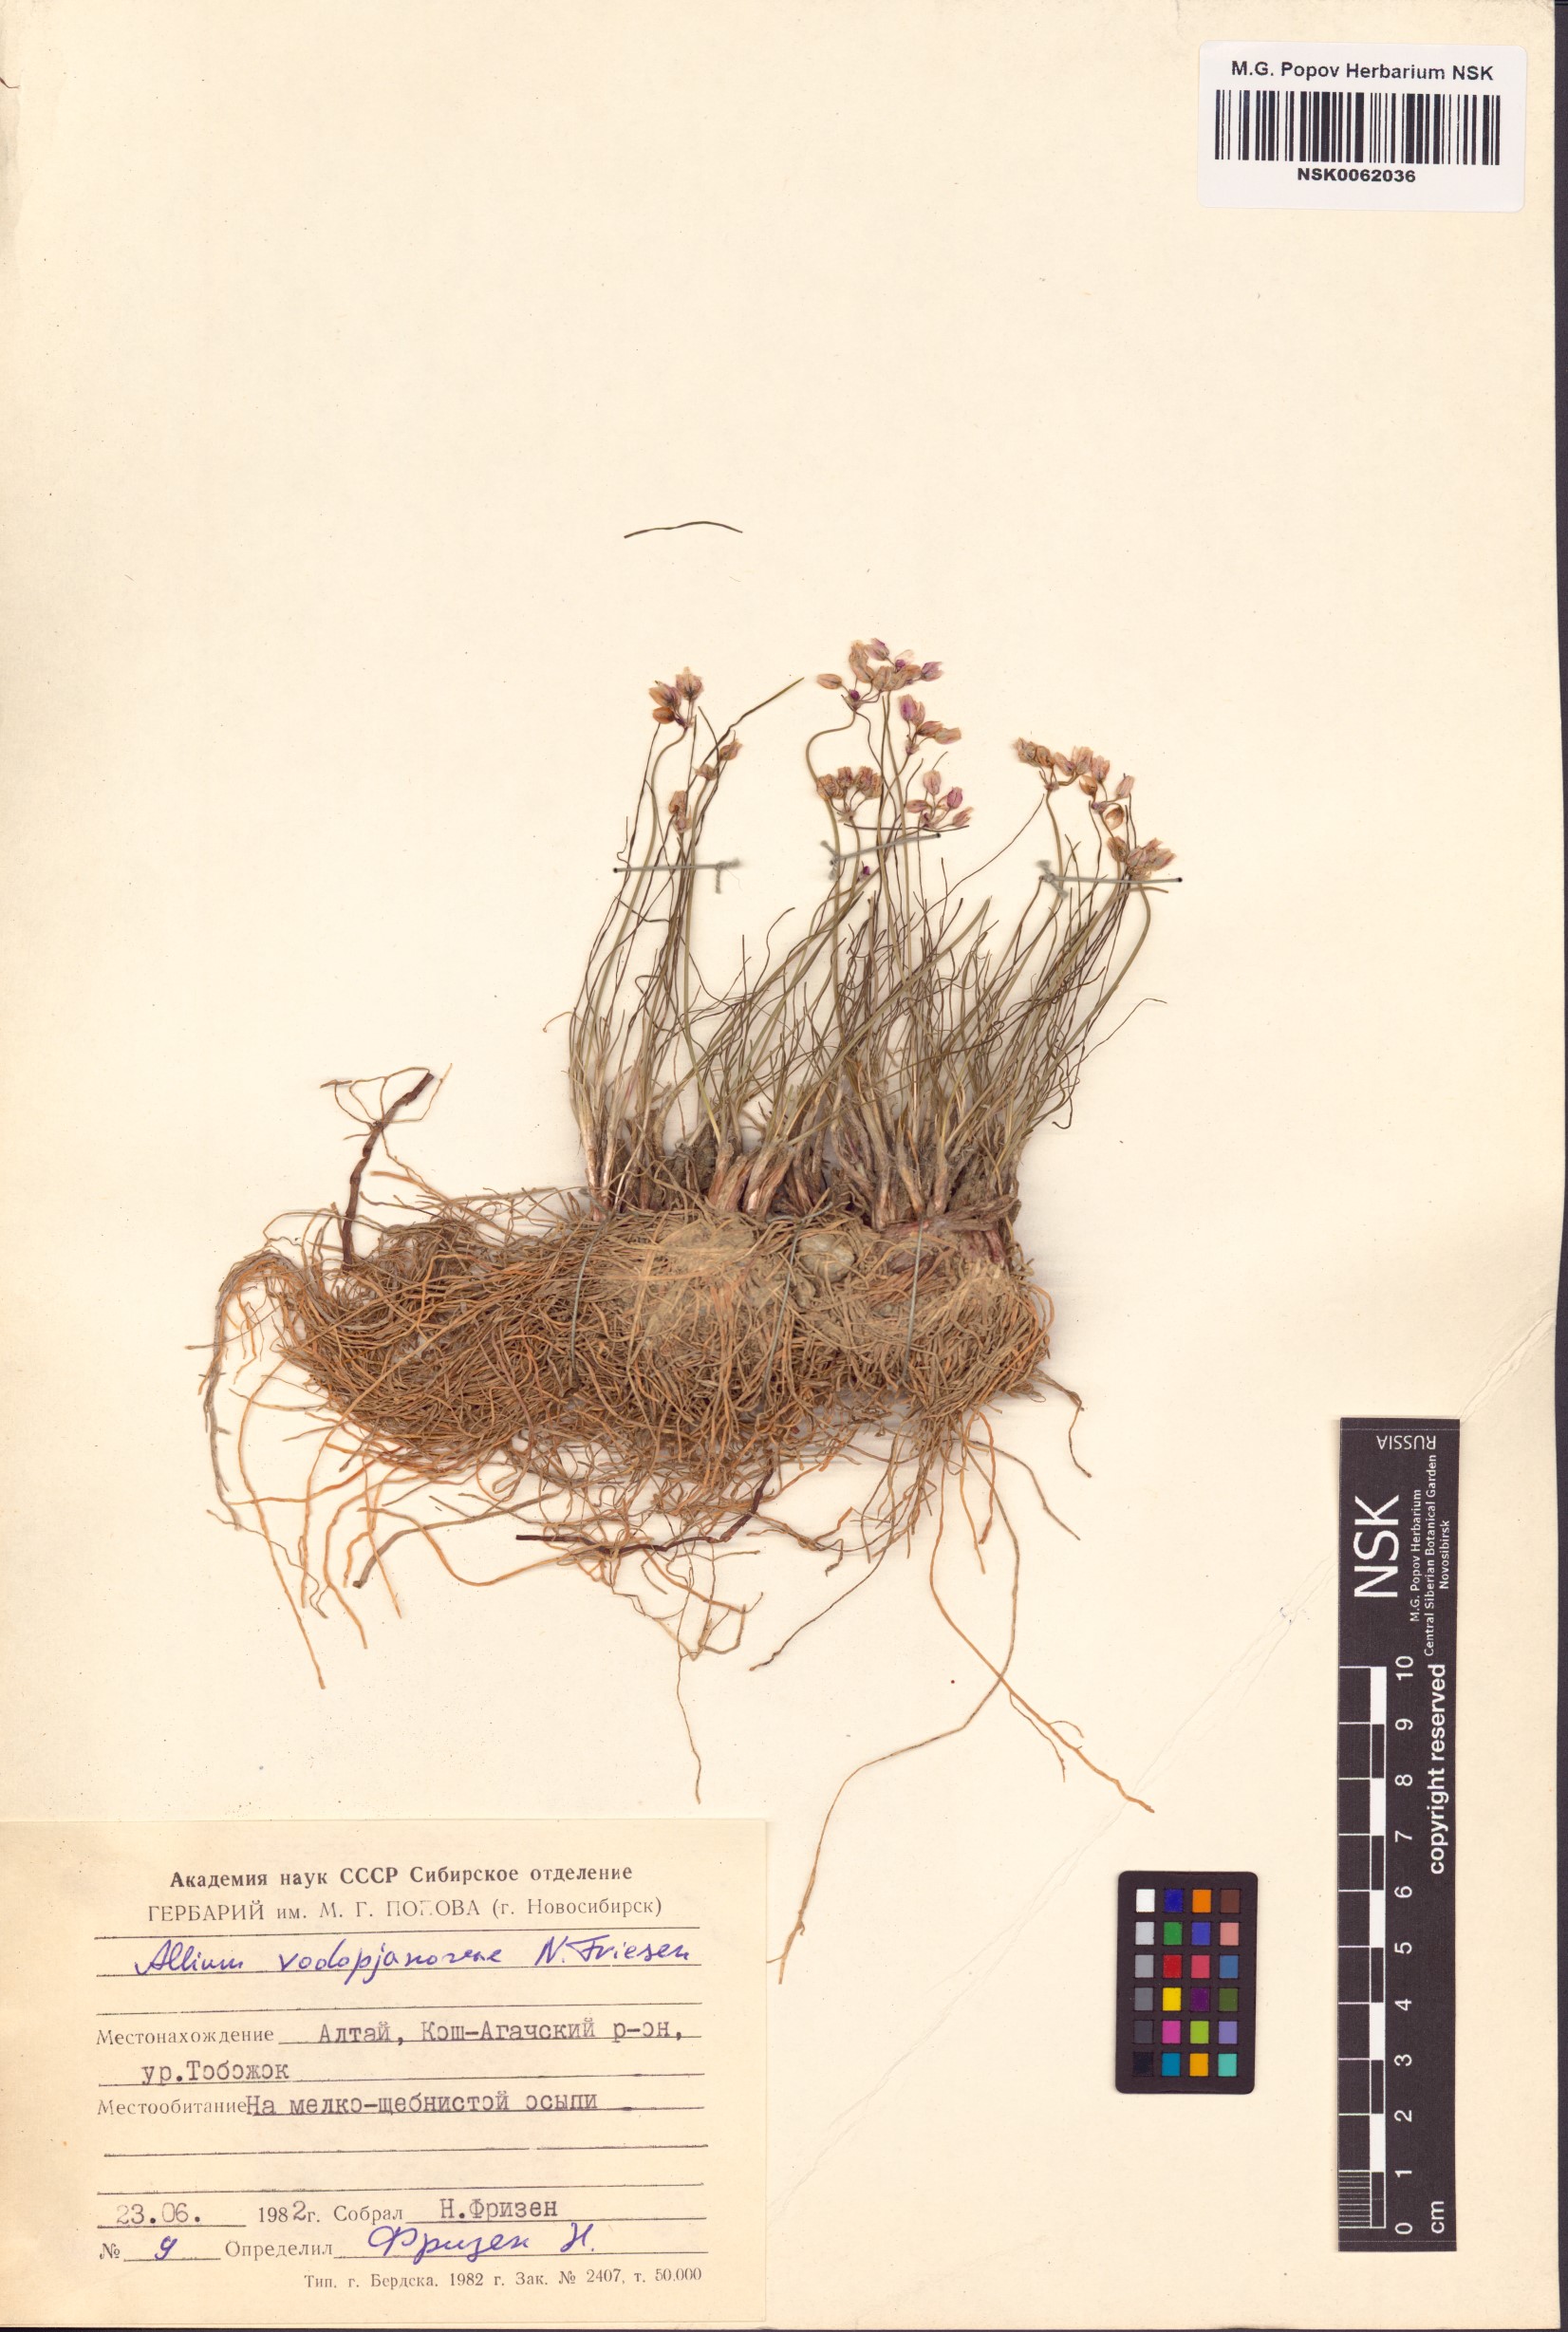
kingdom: Plantae
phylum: Tracheophyta
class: Liliopsida
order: Asparagales
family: Amaryllidaceae
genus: Allium
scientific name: Allium vodopjanovae
